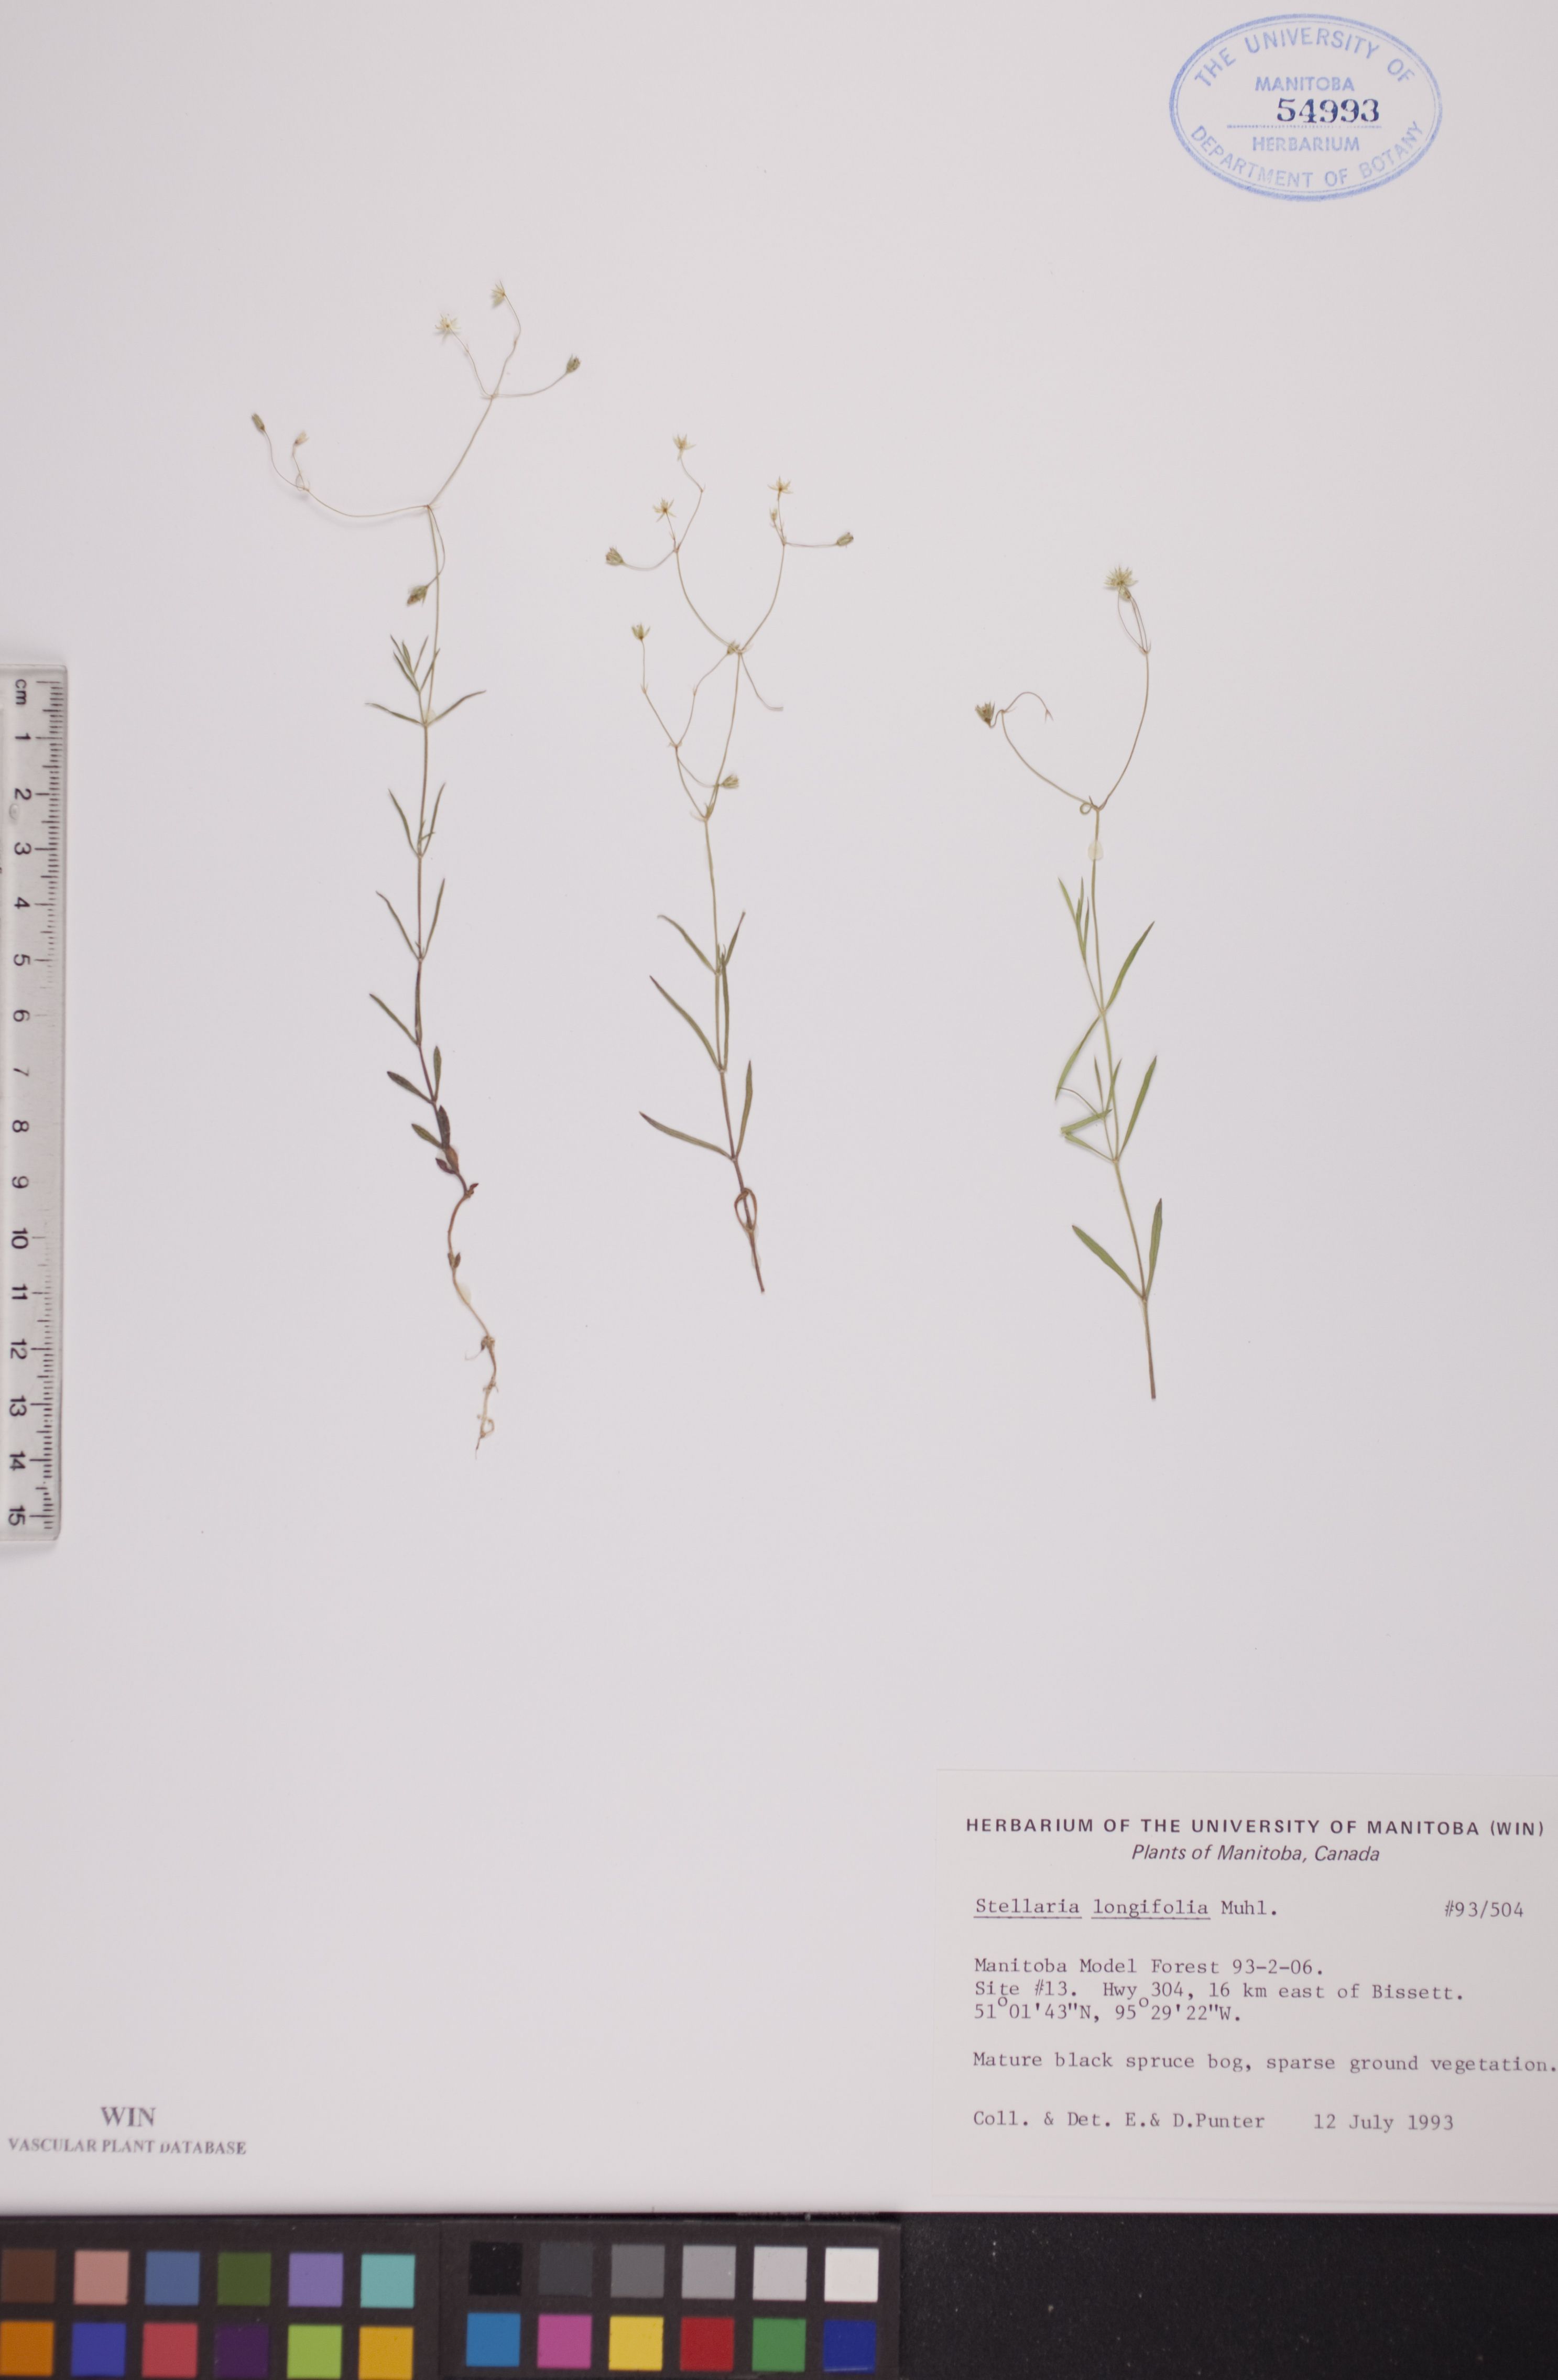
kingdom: Plantae
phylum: Tracheophyta
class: Magnoliopsida
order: Caryophyllales
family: Caryophyllaceae
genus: Stellaria
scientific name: Stellaria longifolia
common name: Long-leaved chickweed
